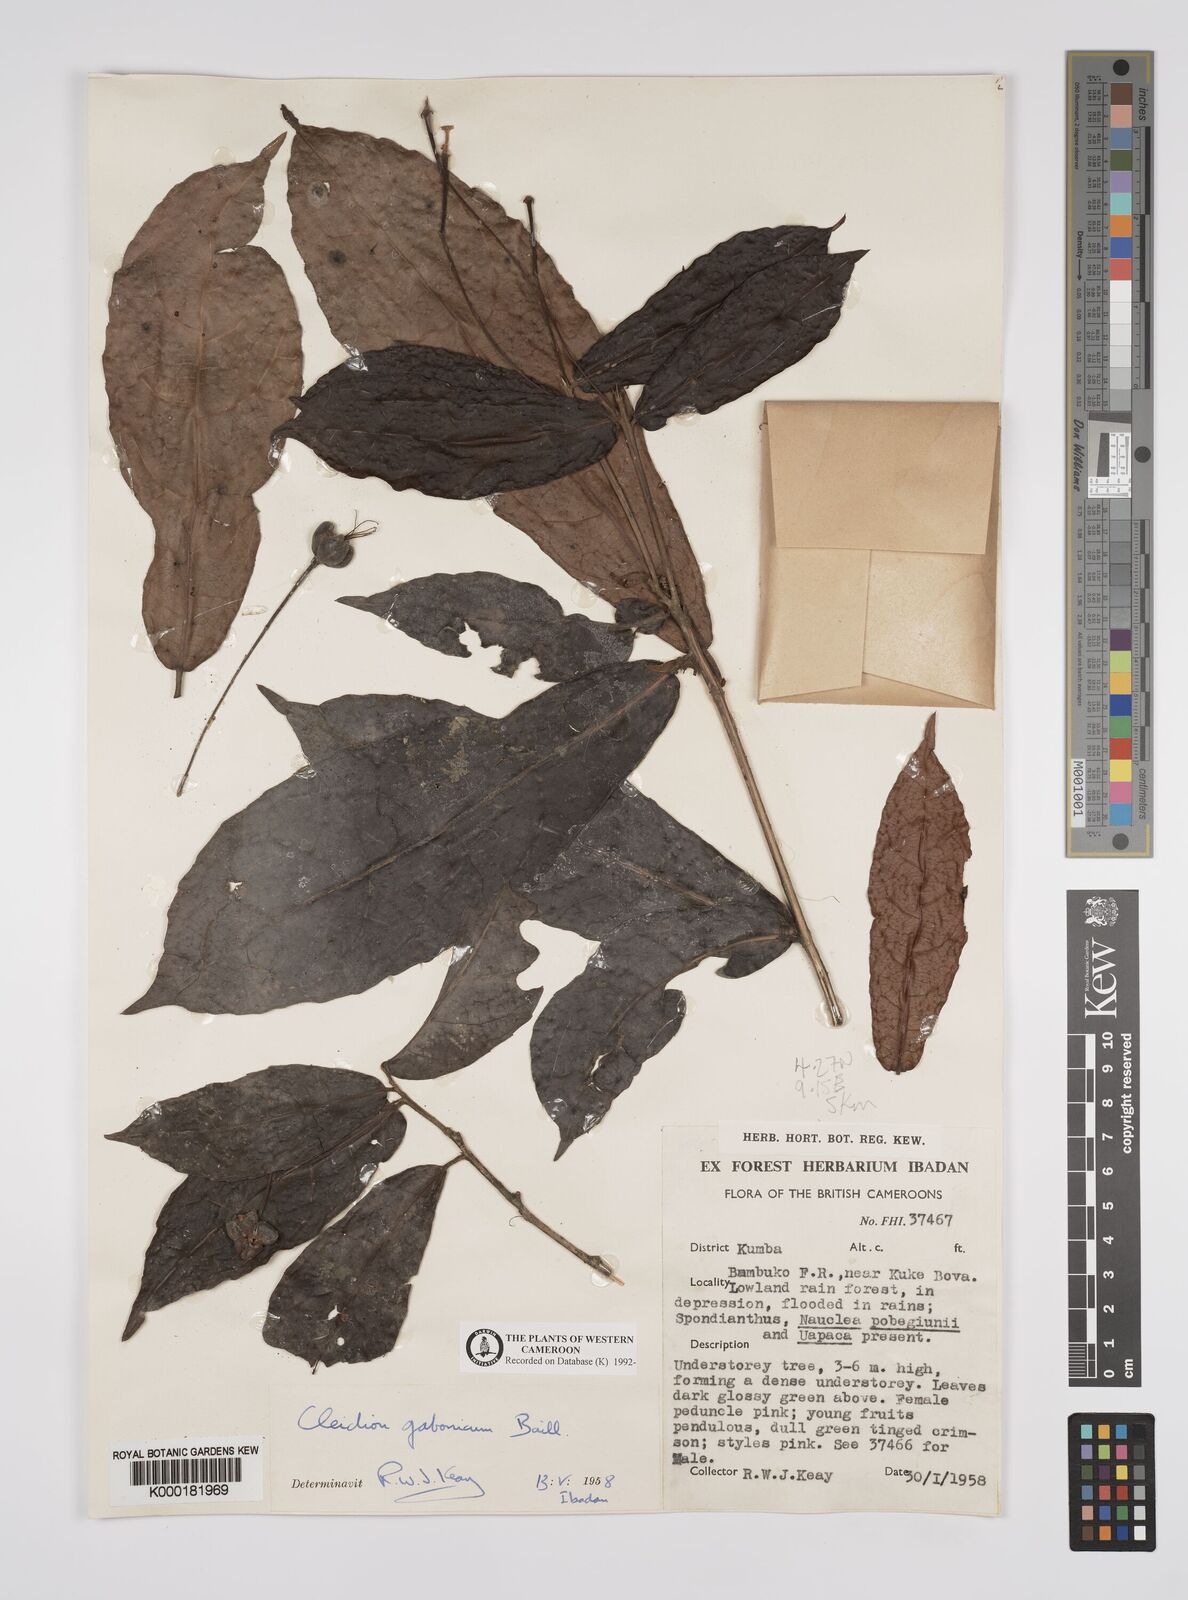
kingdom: Plantae
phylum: Tracheophyta
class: Magnoliopsida
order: Malpighiales
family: Euphorbiaceae
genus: Cleidion
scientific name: Cleidion gabonicum
